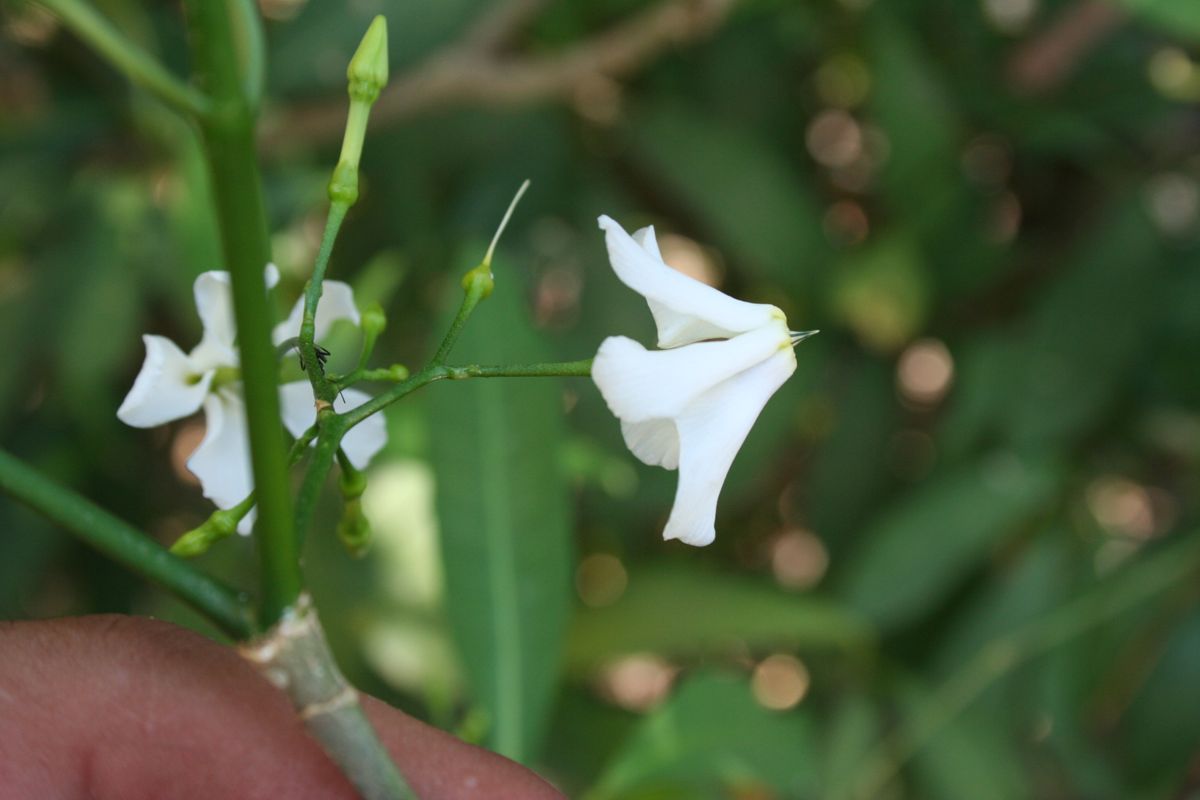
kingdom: Plantae
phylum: Tracheophyta
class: Magnoliopsida
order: Gentianales
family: Apocynaceae
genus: Tabernaemontana
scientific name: Tabernaemontana amygdalifolia
